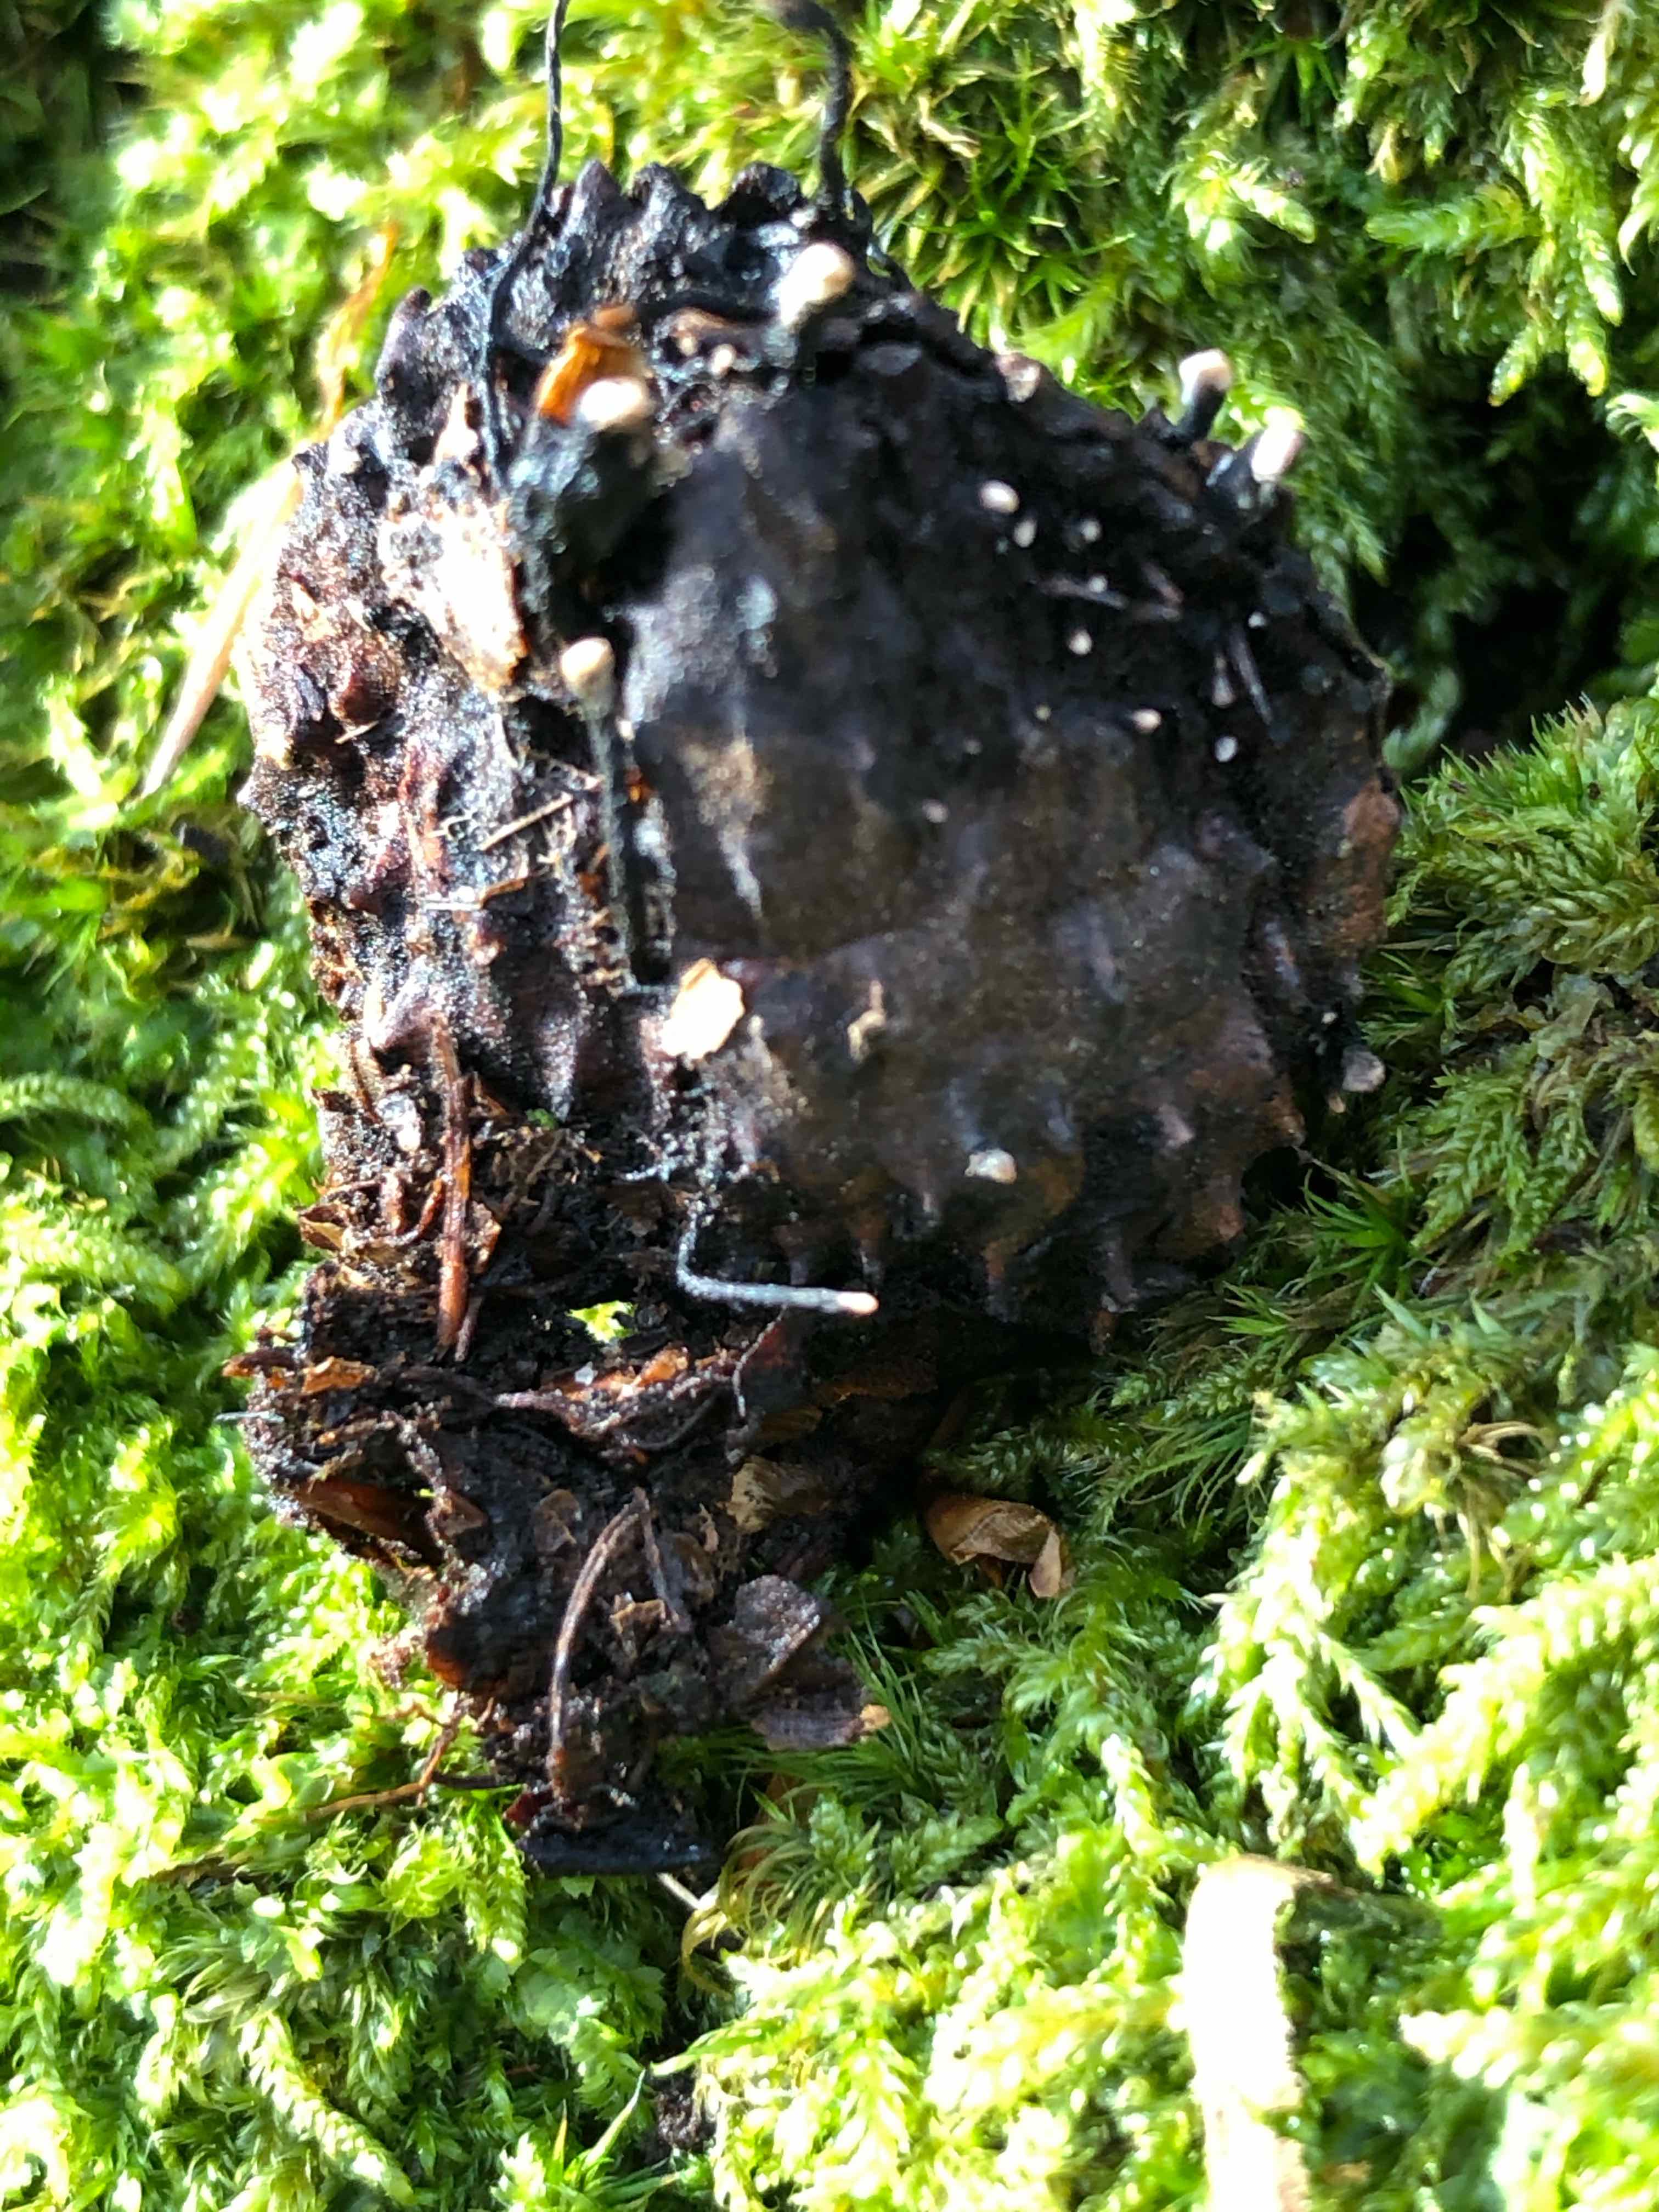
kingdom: Fungi
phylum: Ascomycota
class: Sordariomycetes
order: Xylariales
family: Xylariaceae
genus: Xylaria
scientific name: Xylaria carpophila
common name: bogskål-stødsvamp
